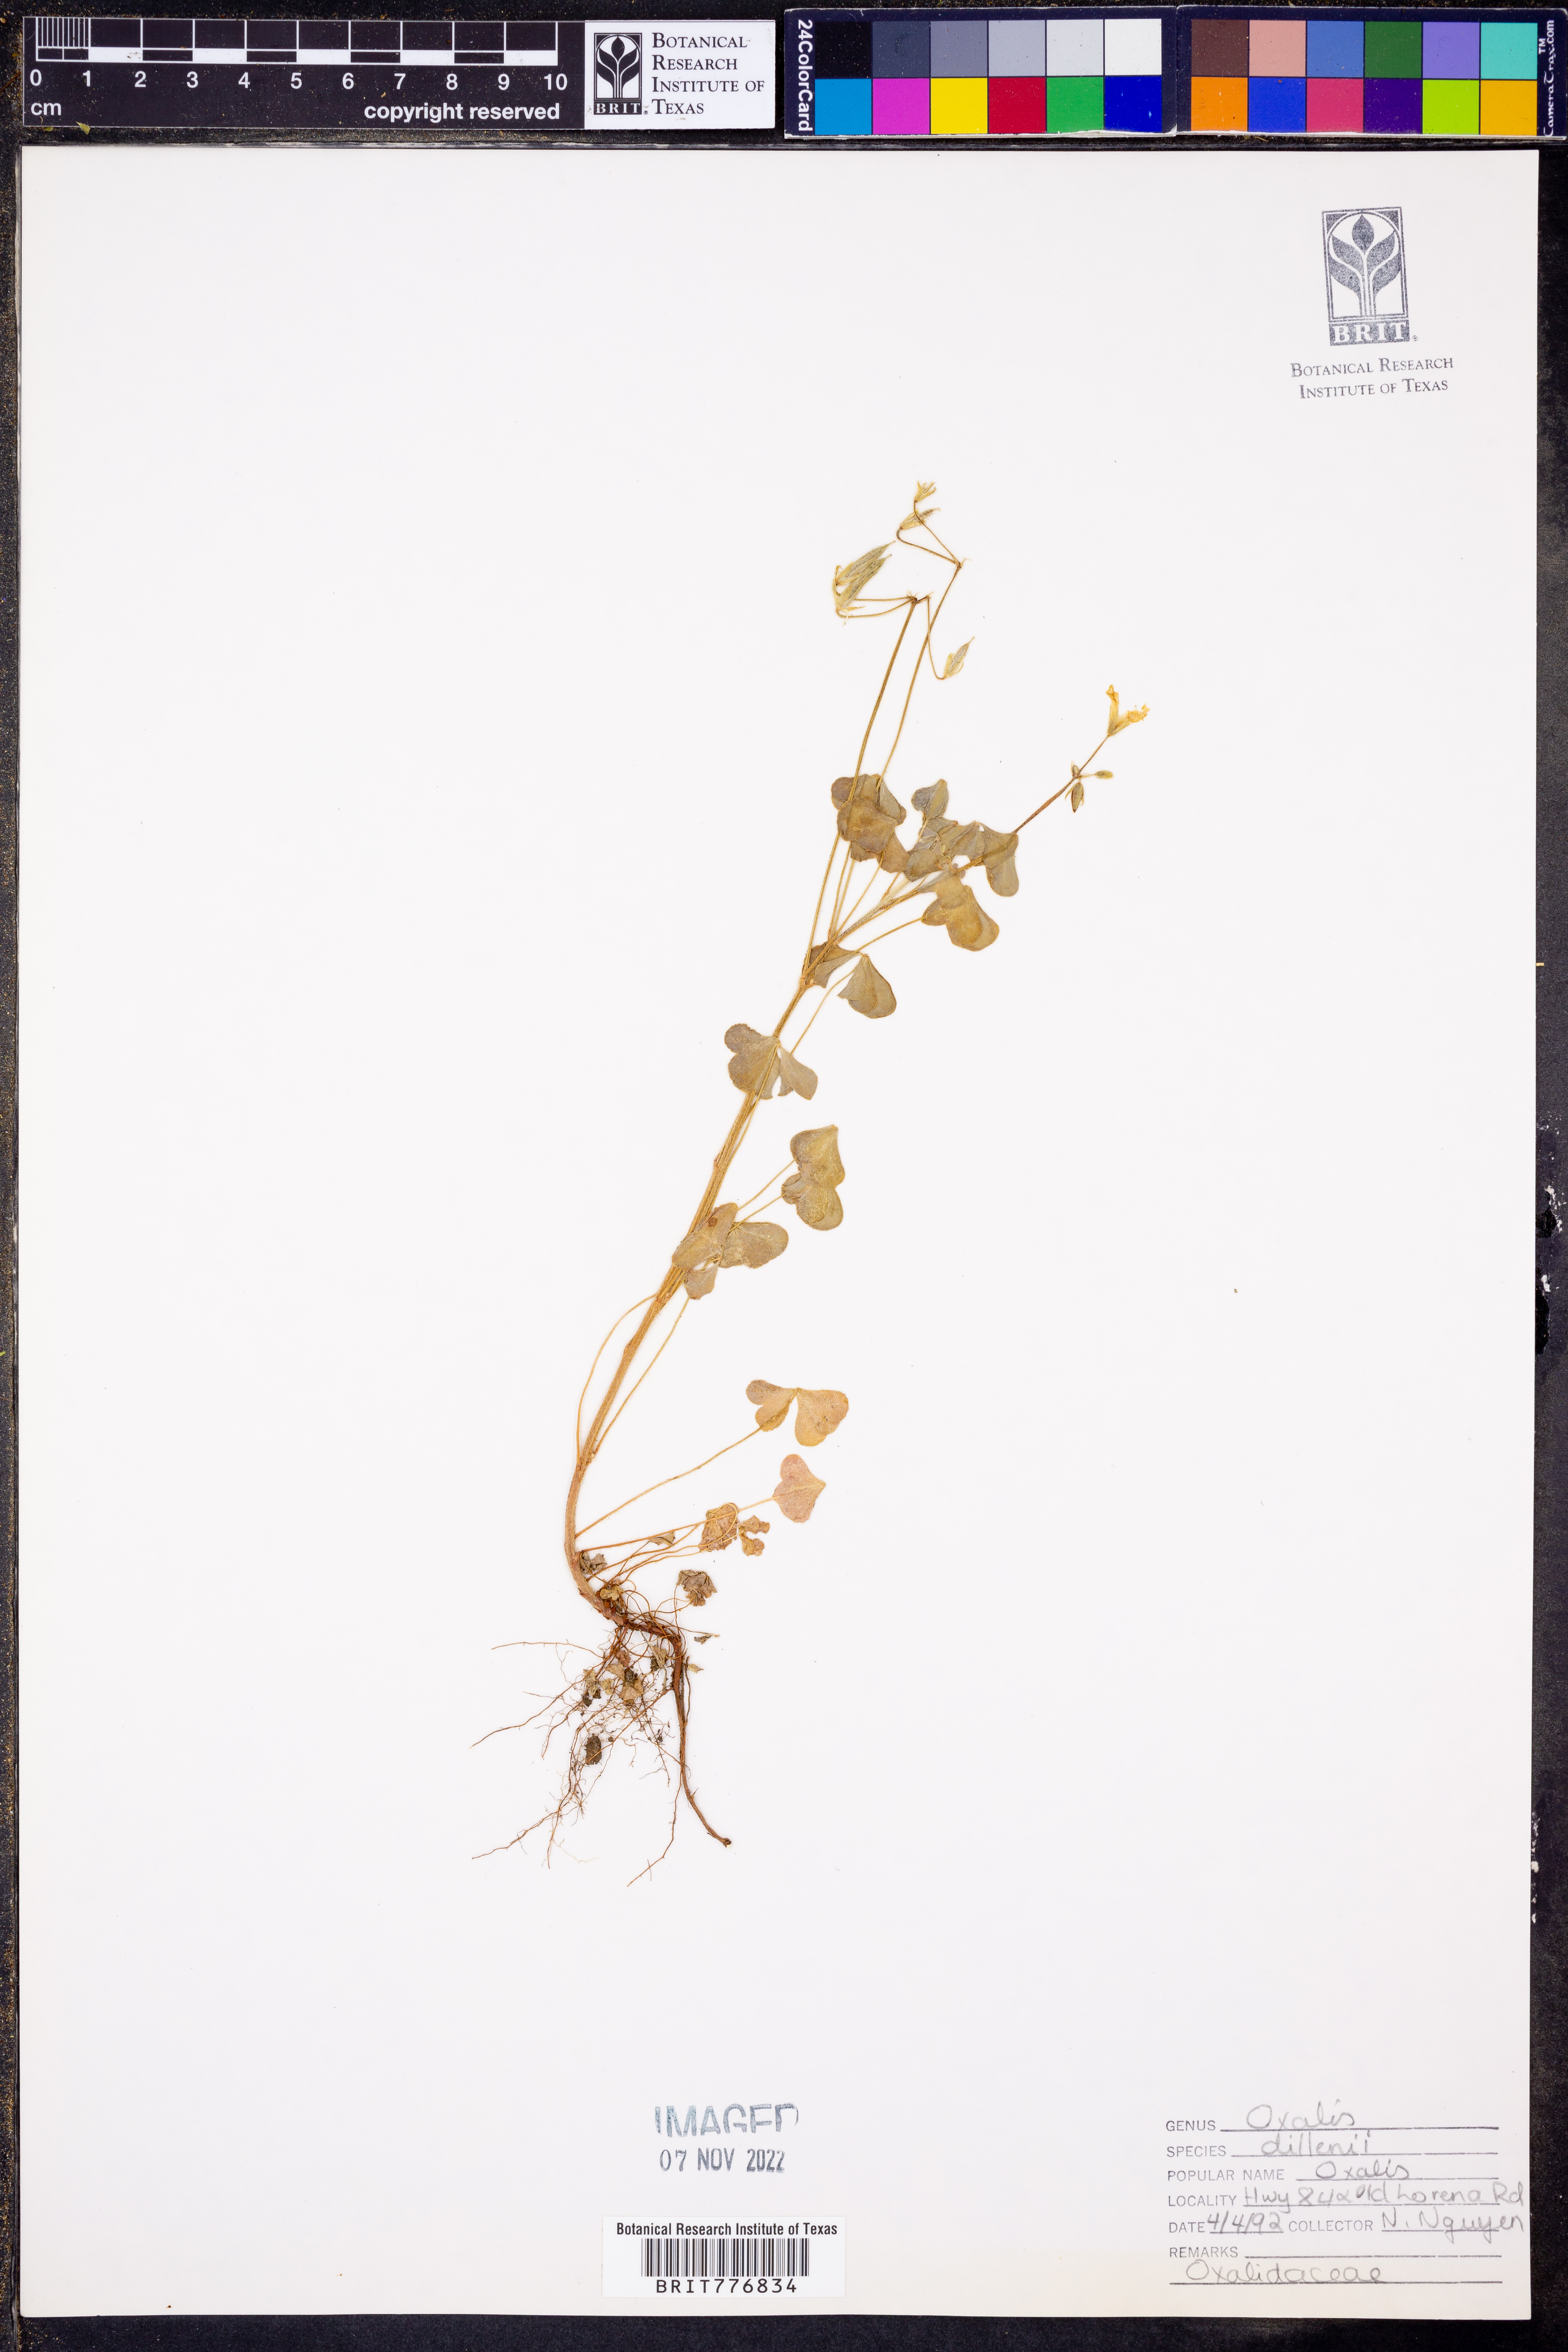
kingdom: Plantae
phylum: Tracheophyta
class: Magnoliopsida
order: Oxalidales
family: Oxalidaceae
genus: Oxalis
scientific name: Oxalis dillenii
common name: Sussex yellow-sorrel
